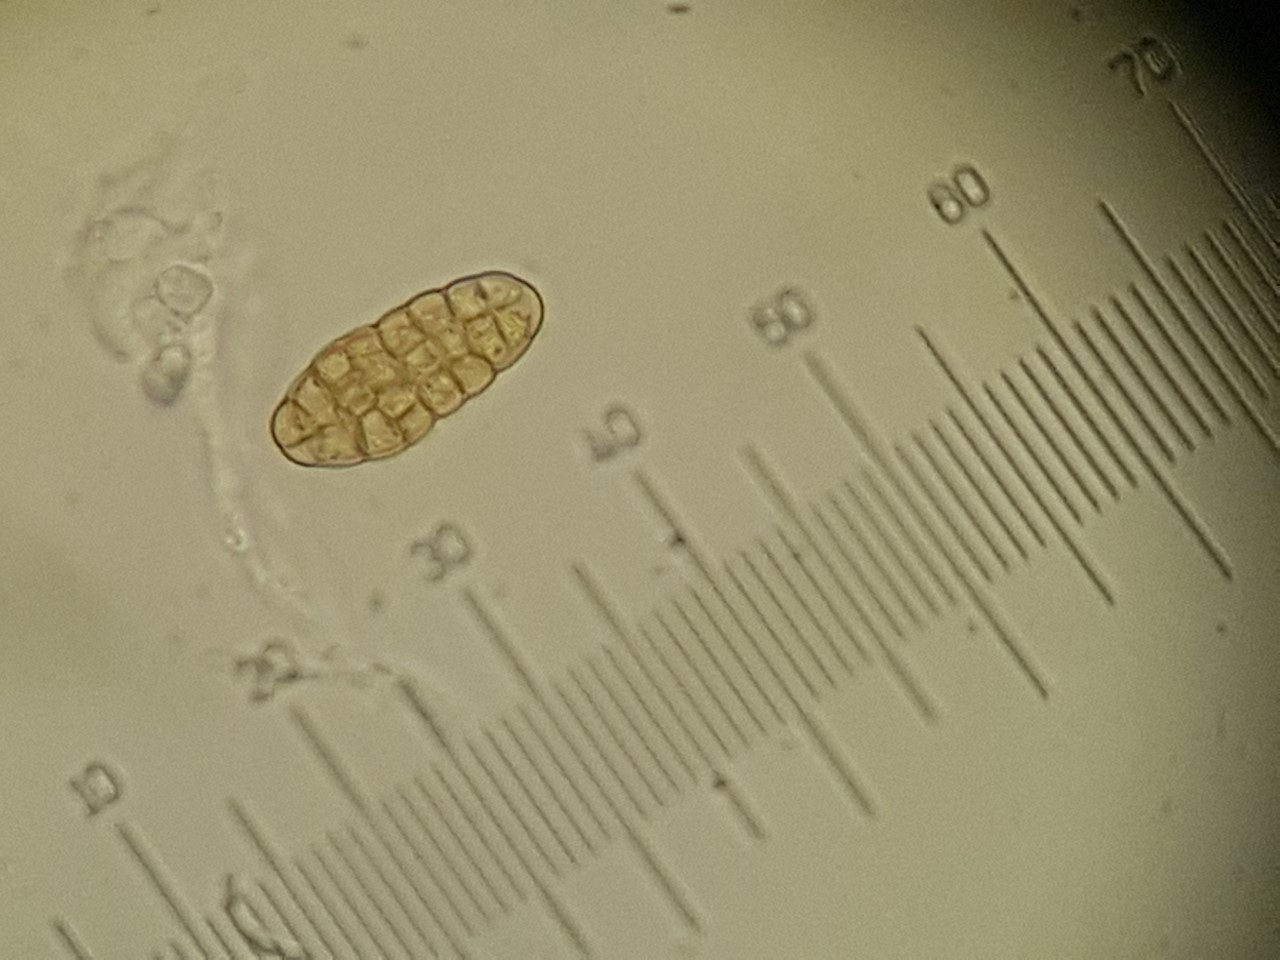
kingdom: Fungi
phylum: Ascomycota
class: Dothideomycetes
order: Pleosporales
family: Pleosporaceae
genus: Pleospora
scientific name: Pleospora
